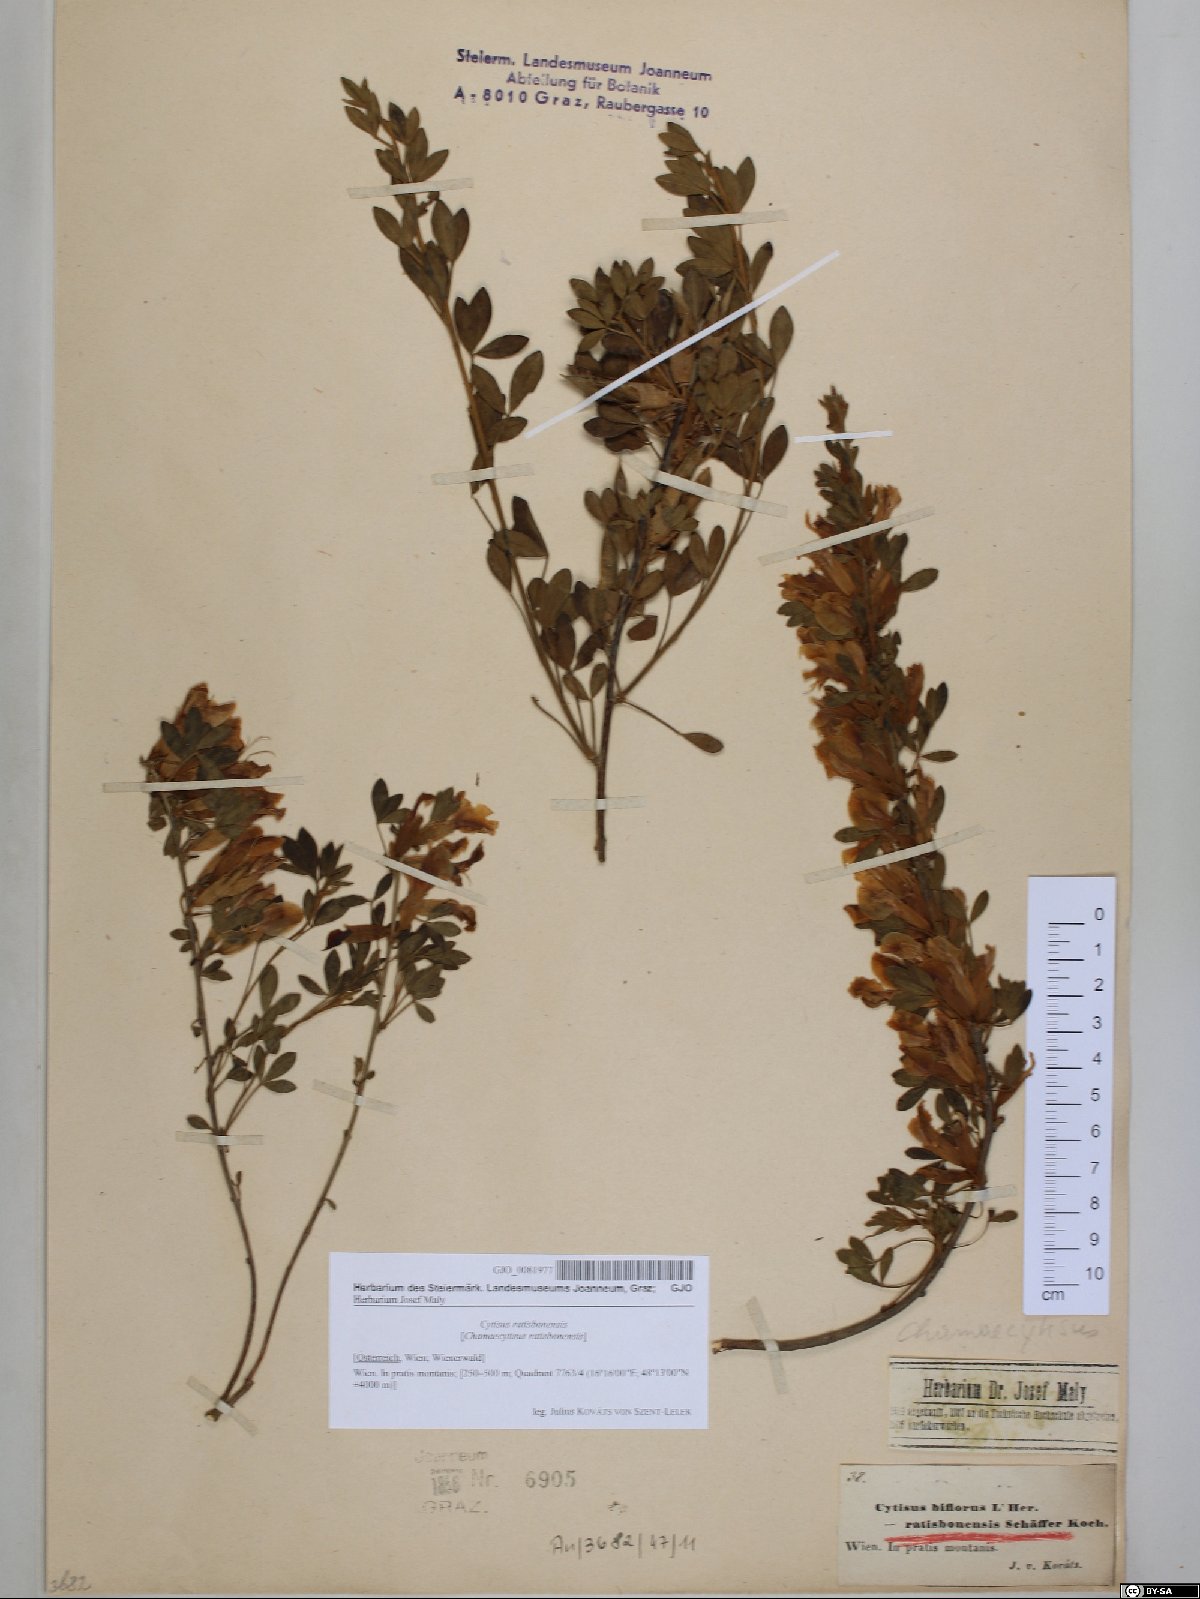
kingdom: Plantae
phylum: Tracheophyta
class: Magnoliopsida
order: Fabales
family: Fabaceae
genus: Chamaecytisus
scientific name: Chamaecytisus ratisbonensis
